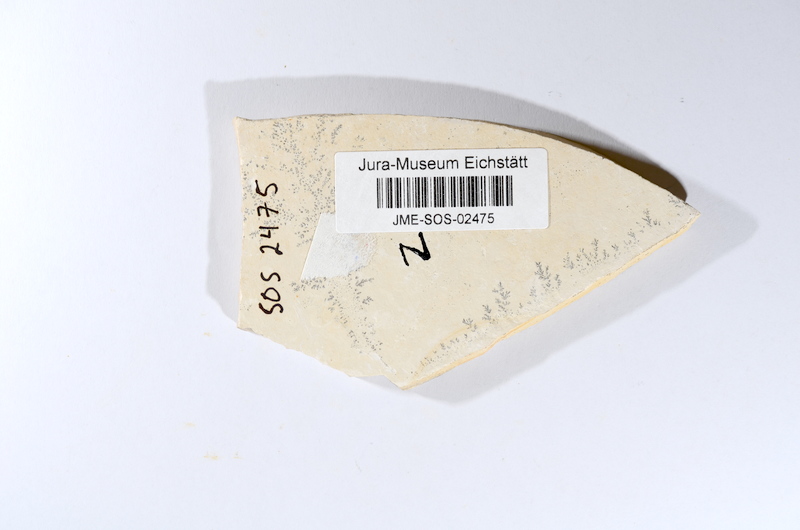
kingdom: Animalia
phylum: Chordata
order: Salmoniformes
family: Orthogonikleithridae
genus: Leptolepides
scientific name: Leptolepides
